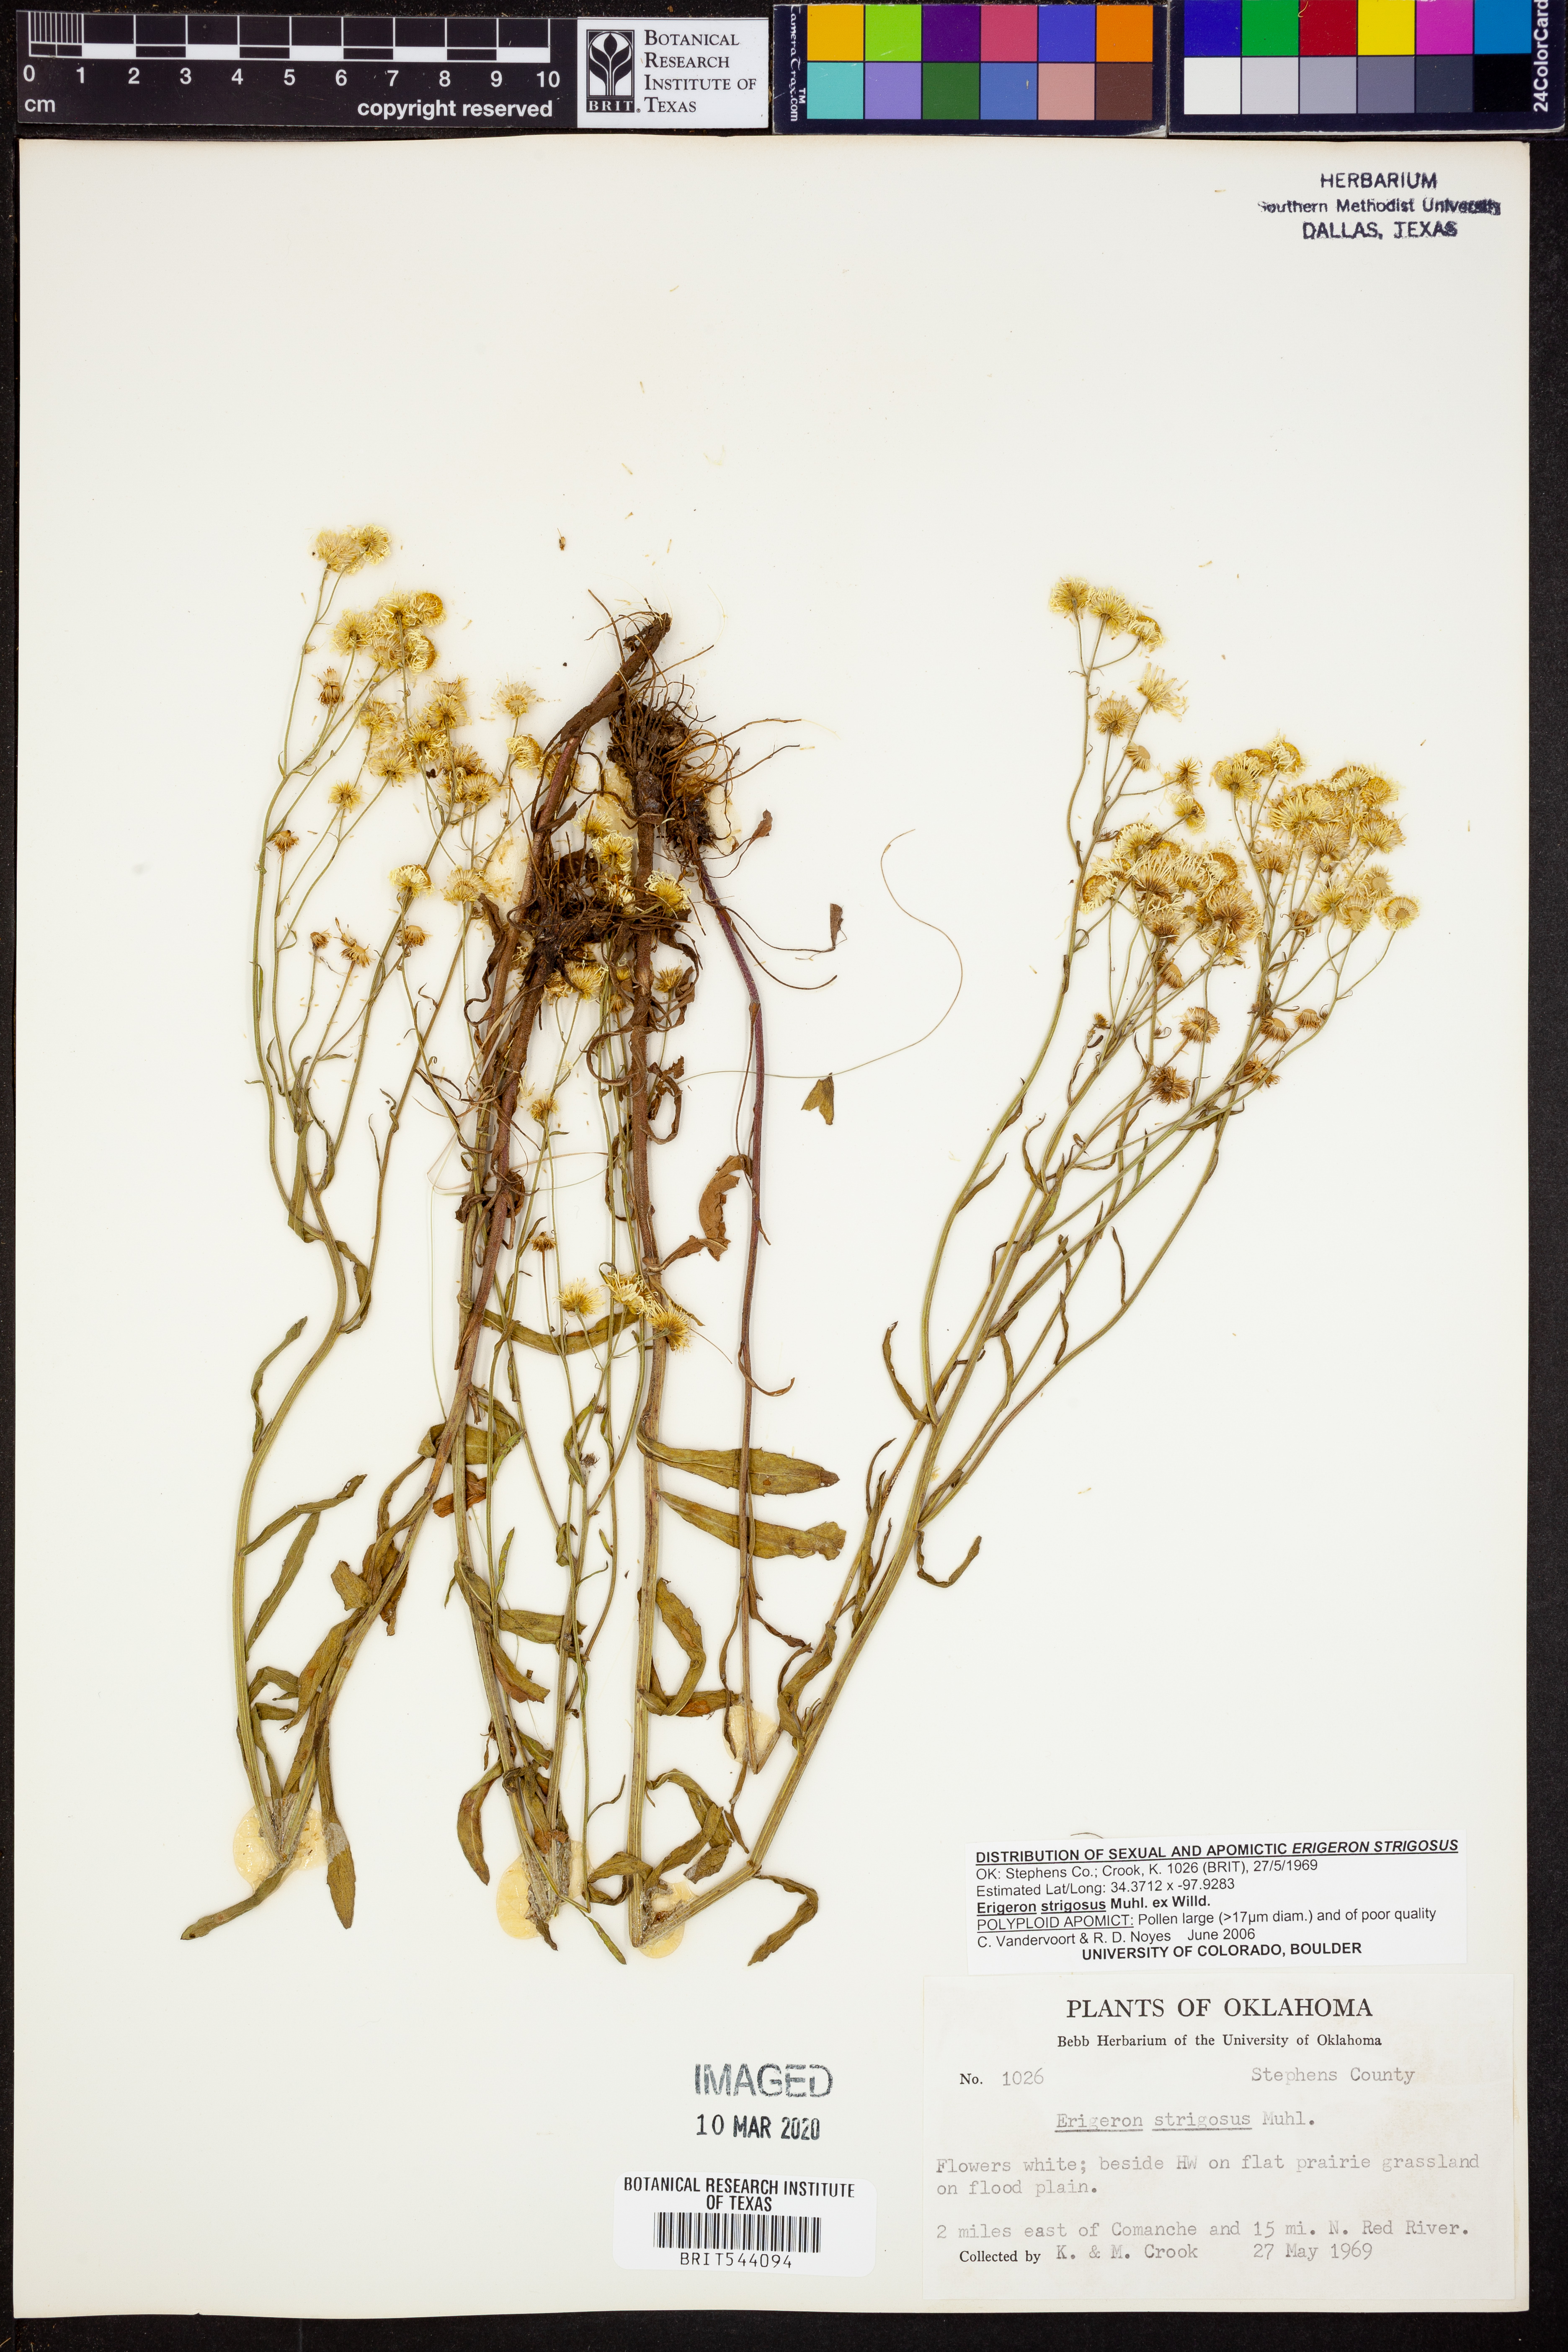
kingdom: Plantae
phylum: Tracheophyta
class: Magnoliopsida
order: Asterales
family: Asteraceae
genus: Erigeron
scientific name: Erigeron strigosus
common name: Common eastern fleabane
